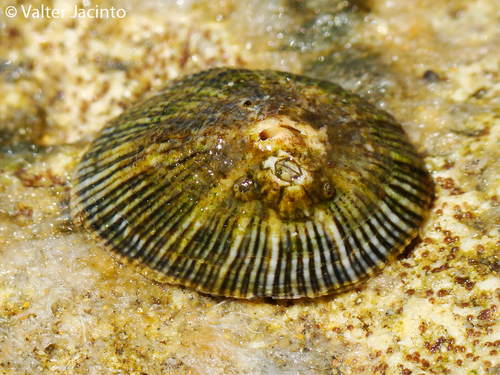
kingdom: Animalia
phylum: Mollusca
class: Gastropoda
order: Siphonariida
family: Siphonariidae
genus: Siphonaria
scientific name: Siphonaria pectinata
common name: Striped false limpet
